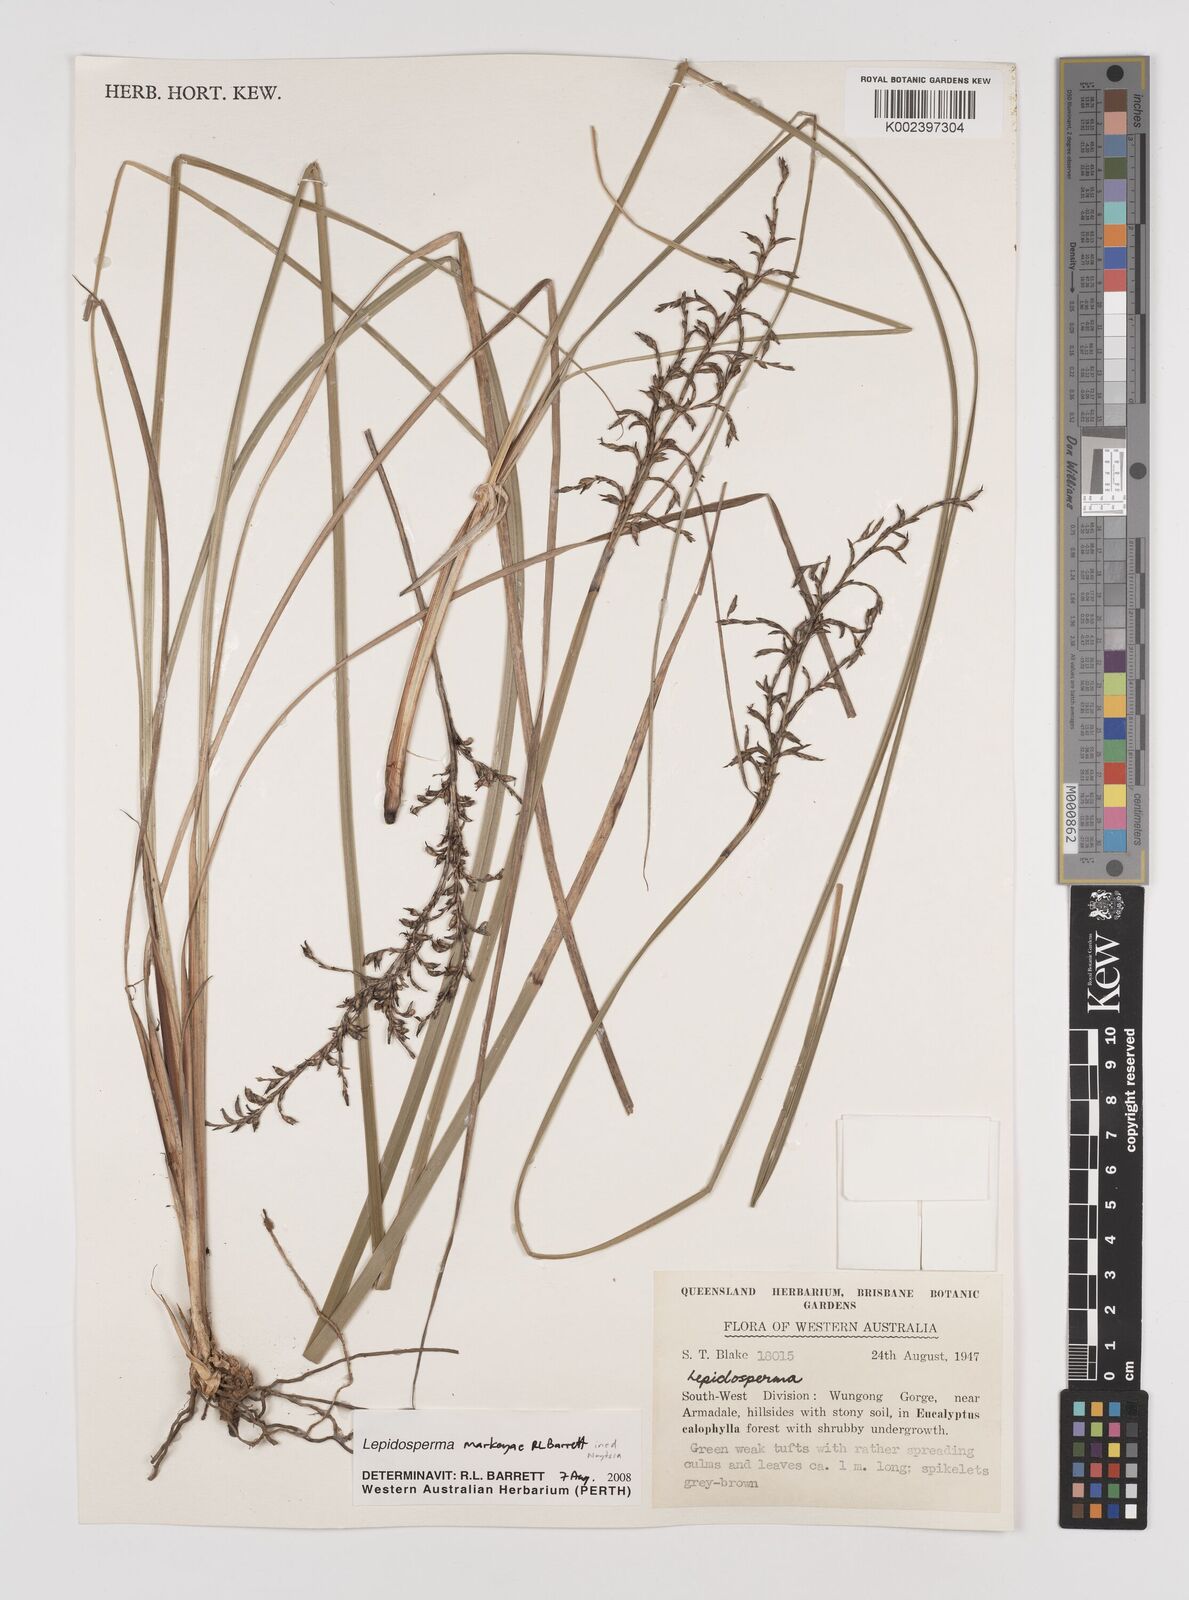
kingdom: Plantae
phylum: Tracheophyta
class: Liliopsida
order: Poales
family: Cyperaceae
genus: Lepidosperma
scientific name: Lepidosperma
